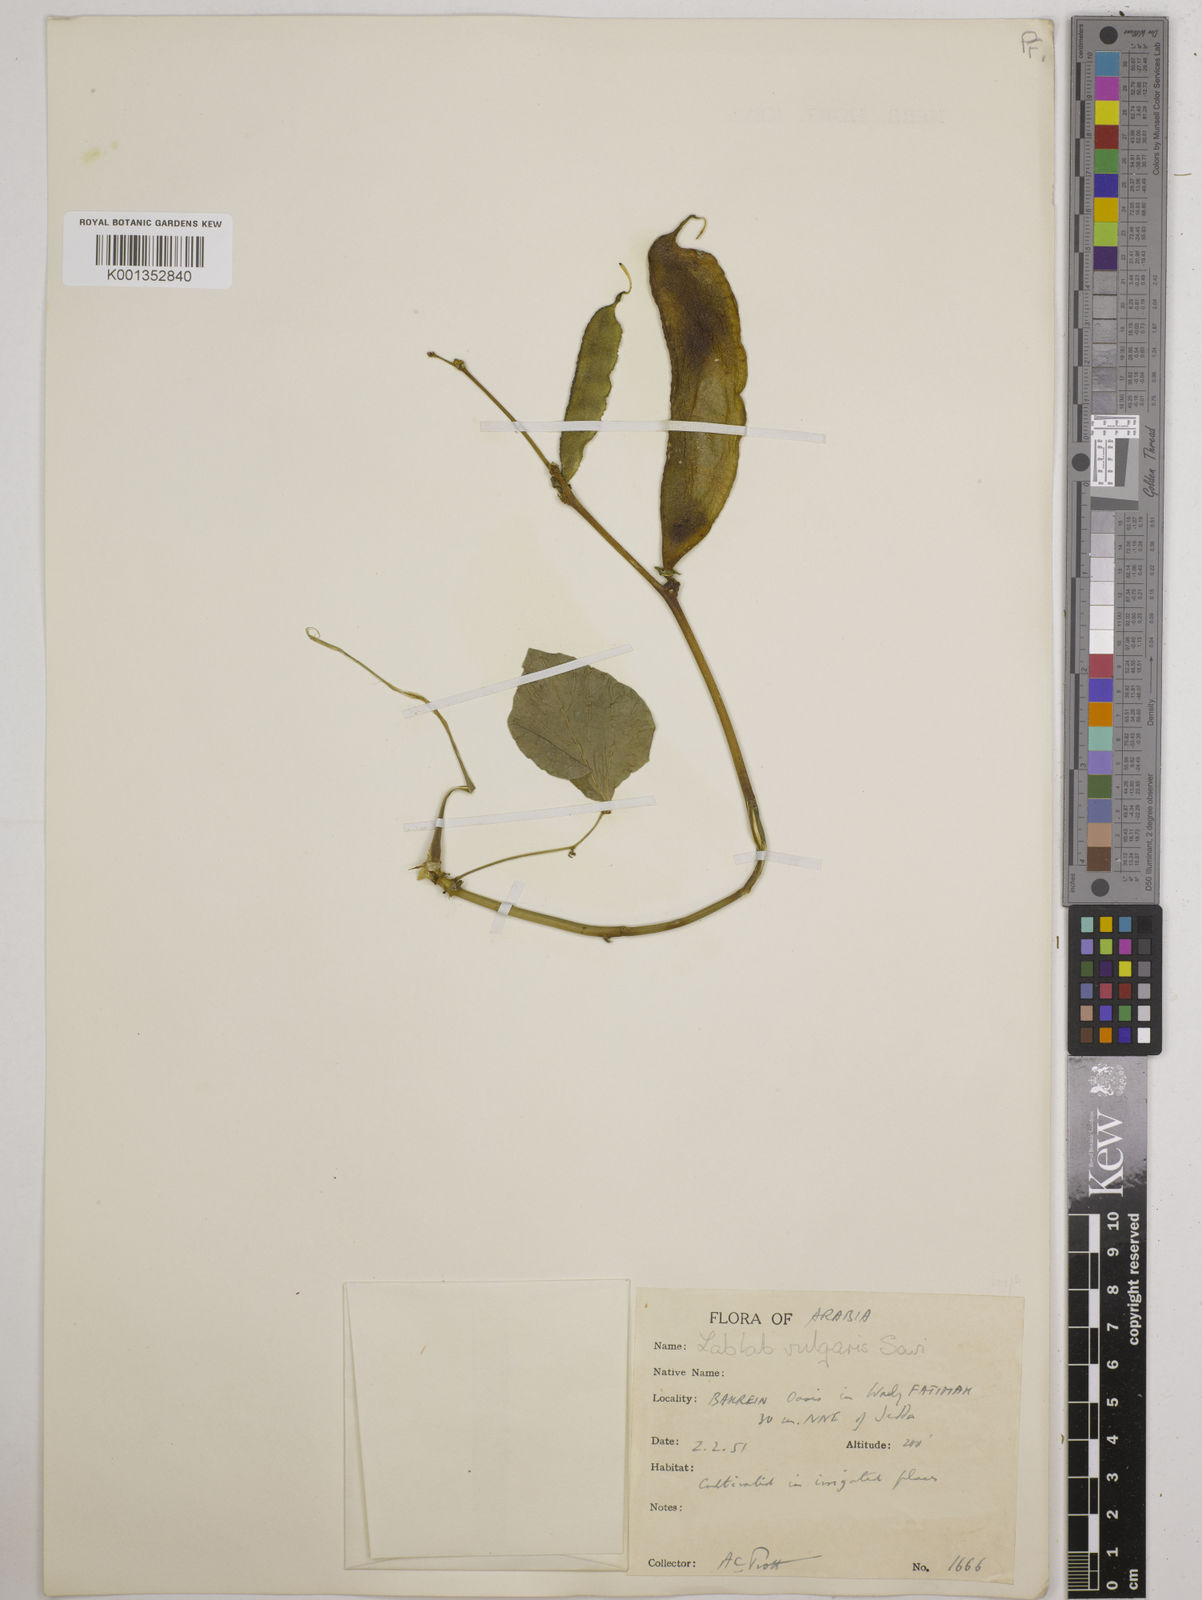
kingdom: Plantae
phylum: Tracheophyta
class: Magnoliopsida
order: Fabales
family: Fabaceae
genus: Lablab
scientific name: Lablab purpureus
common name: Lablab-bean
